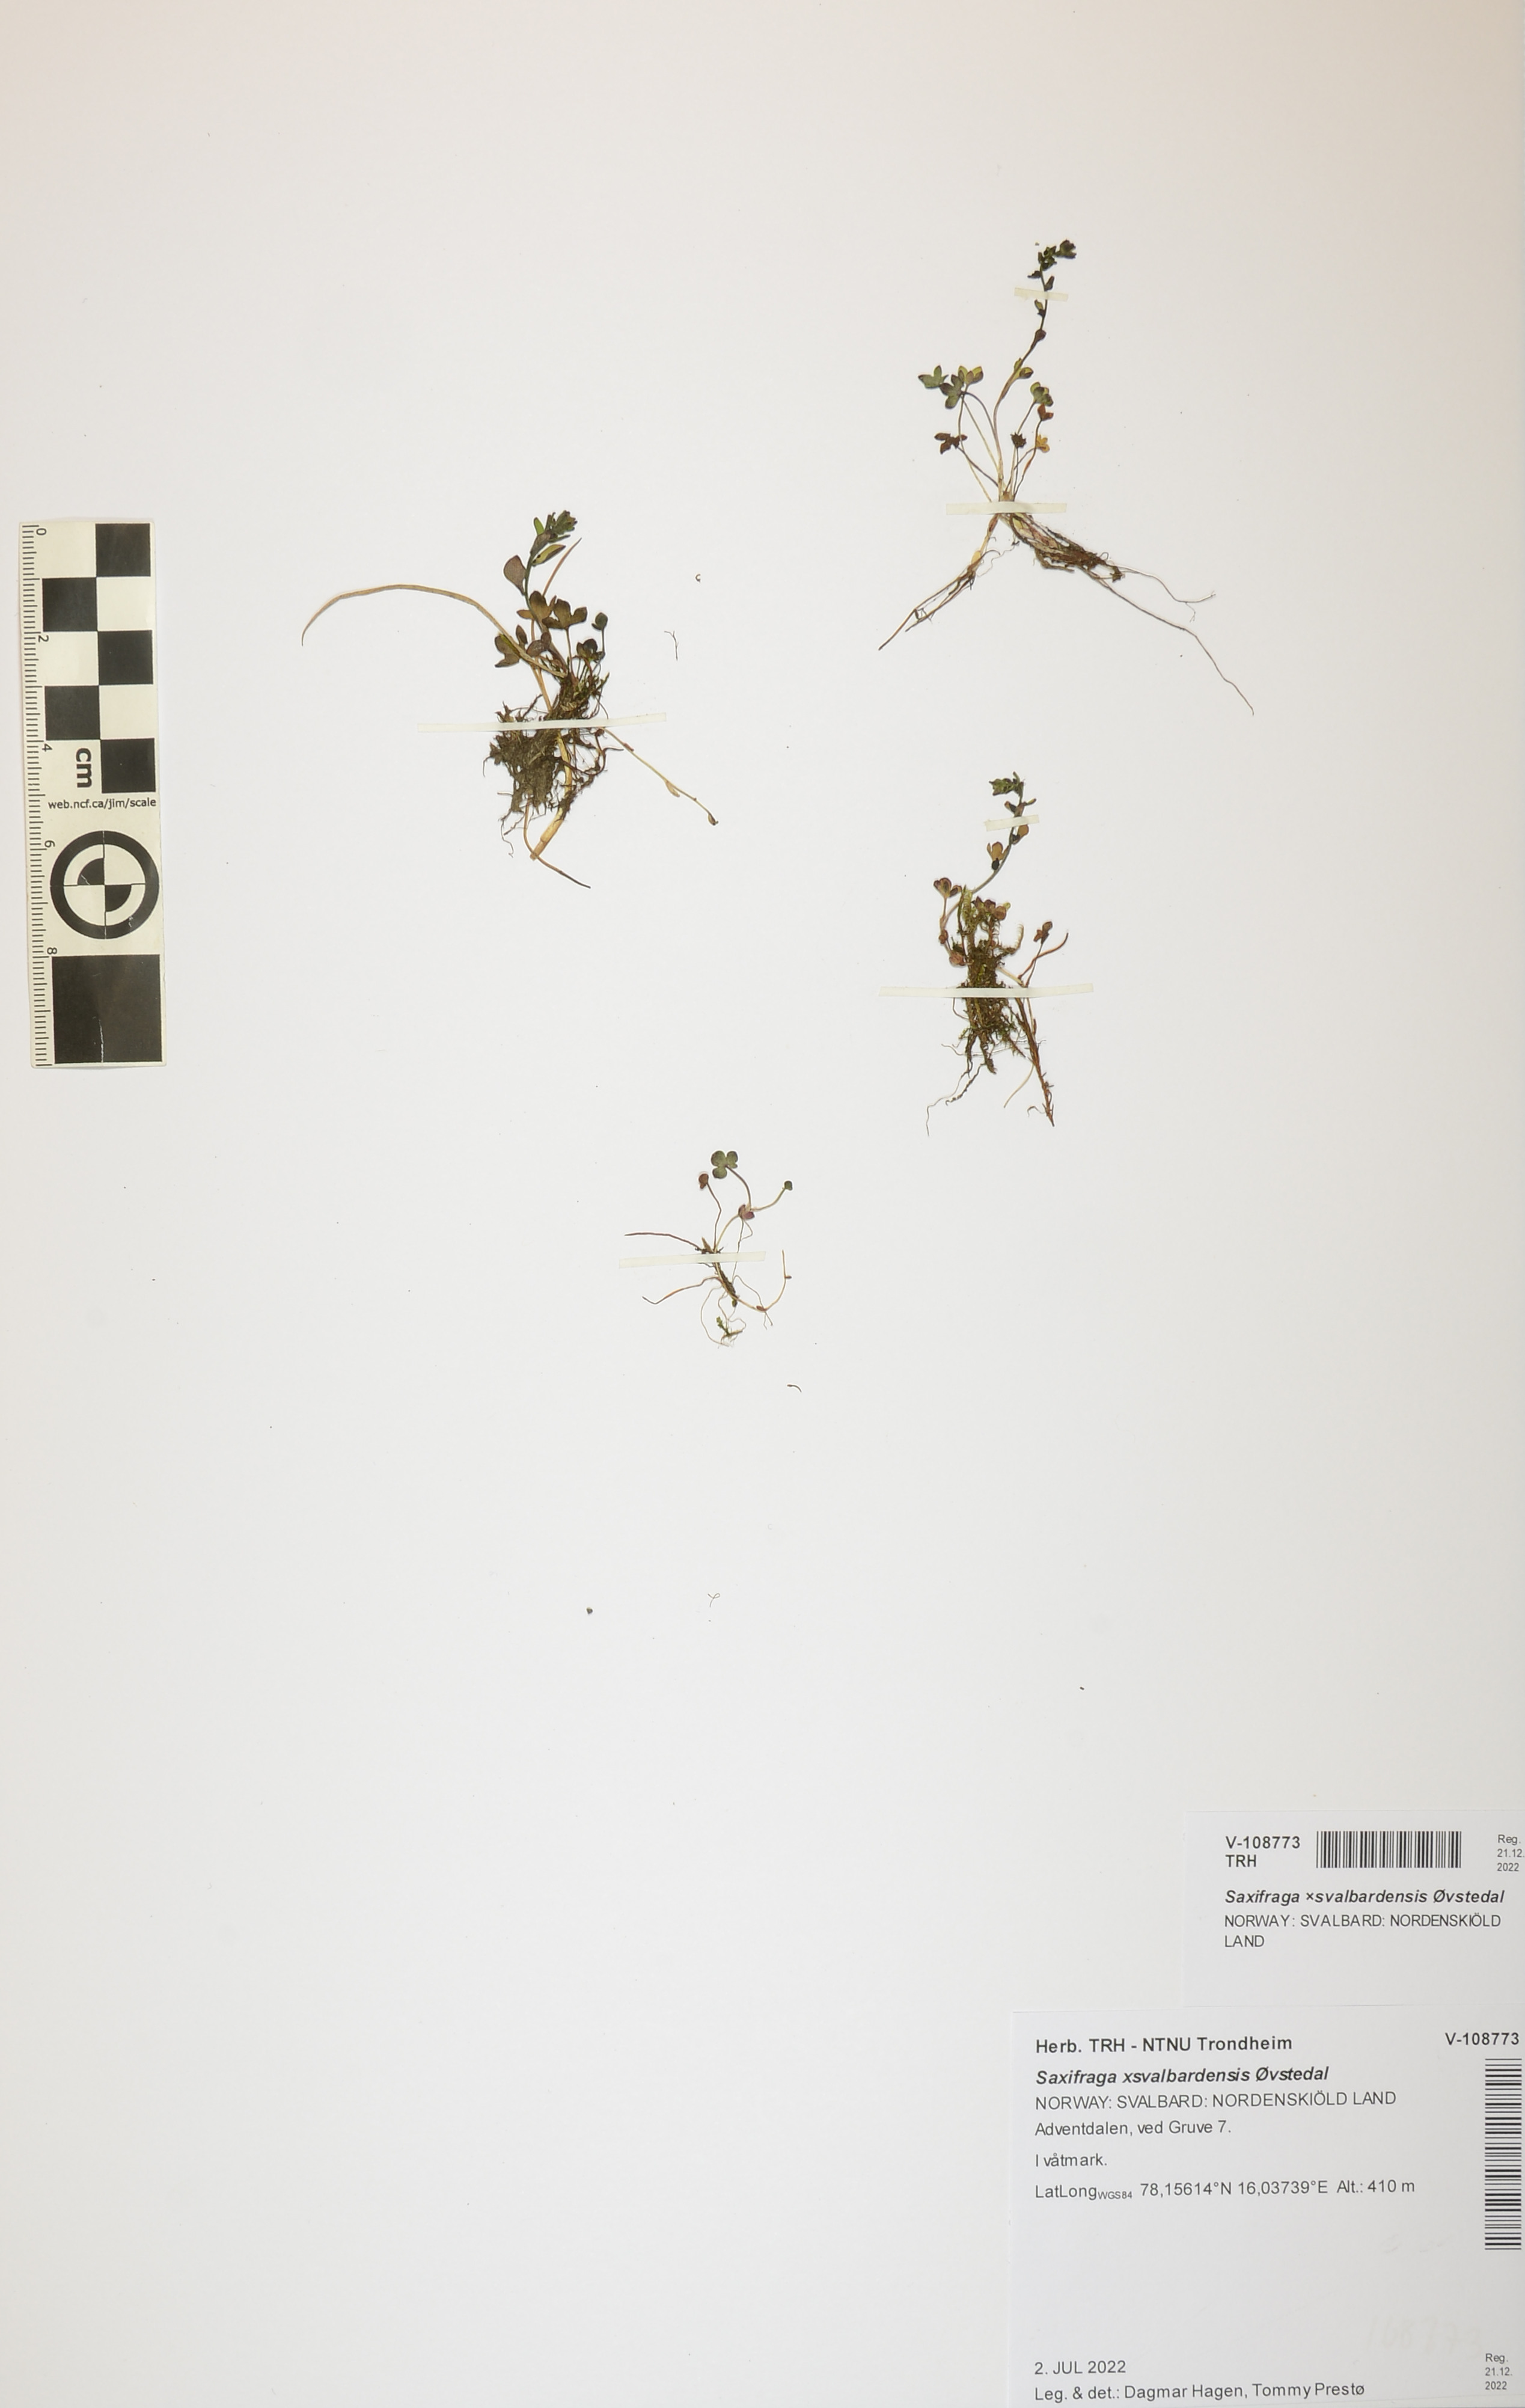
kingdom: Plantae
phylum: Tracheophyta
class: Magnoliopsida
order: Saxifragales
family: Saxifragaceae
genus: Saxifraga
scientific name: Saxifraga svalbardensis
